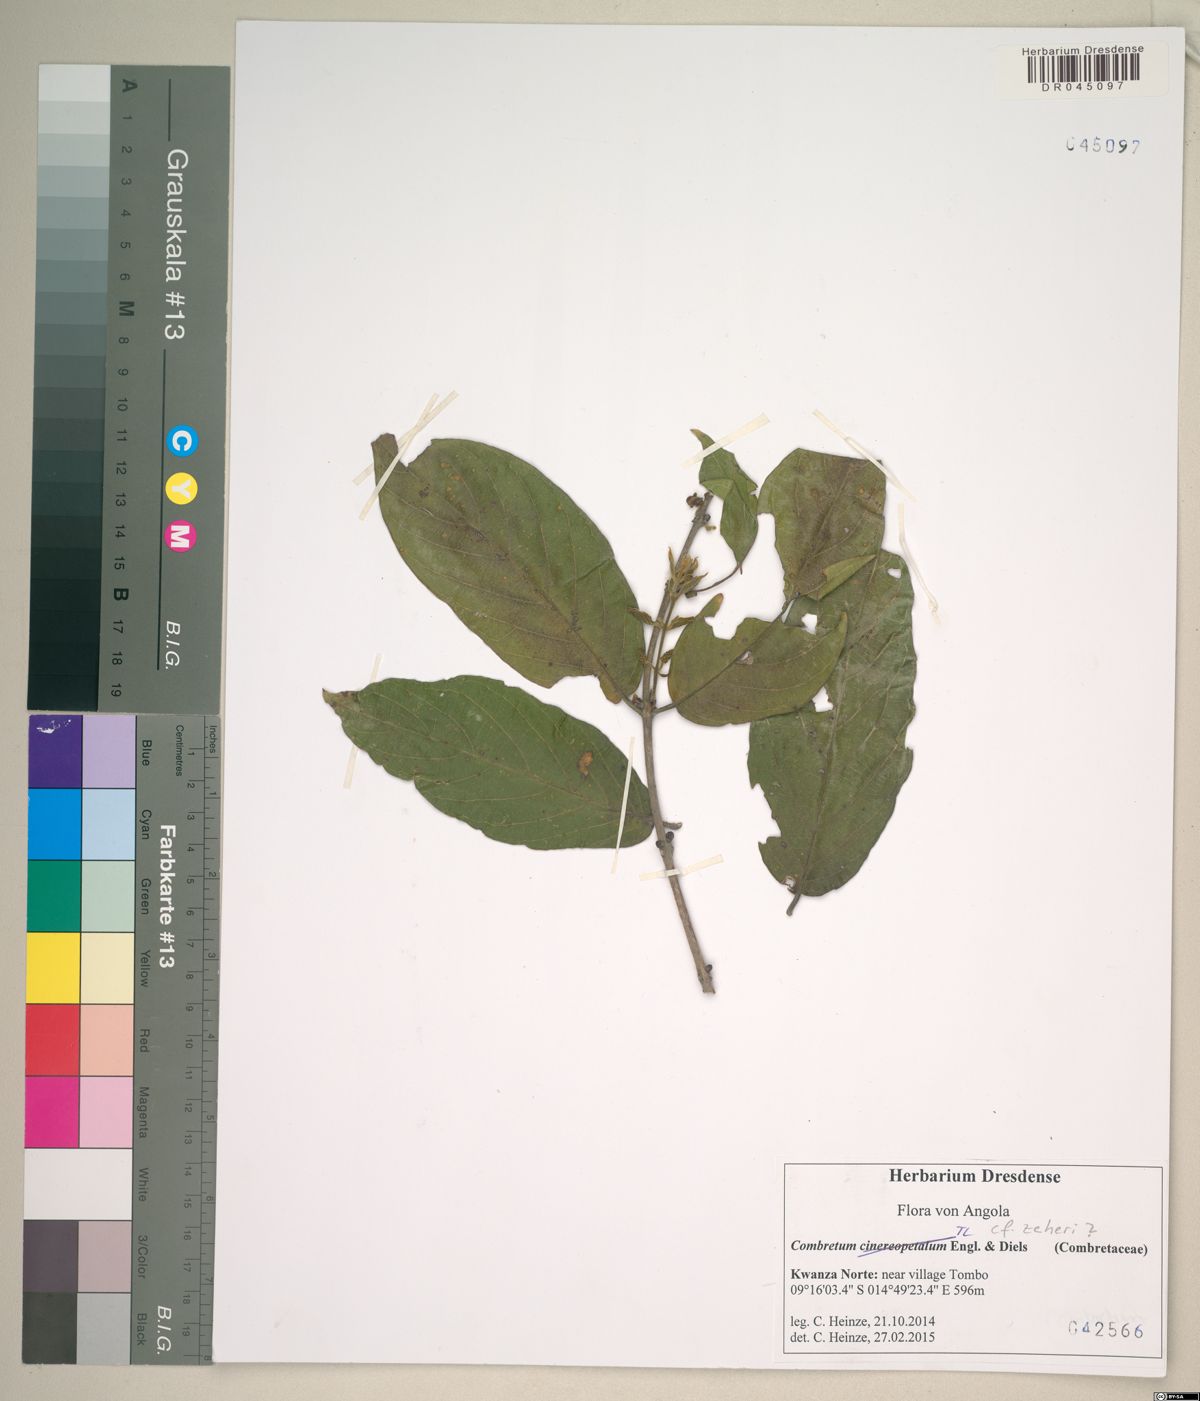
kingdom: Plantae
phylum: Tracheophyta
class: Magnoliopsida
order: Myrtales
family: Combretaceae
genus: Combretum
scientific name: Combretum zeyheri
